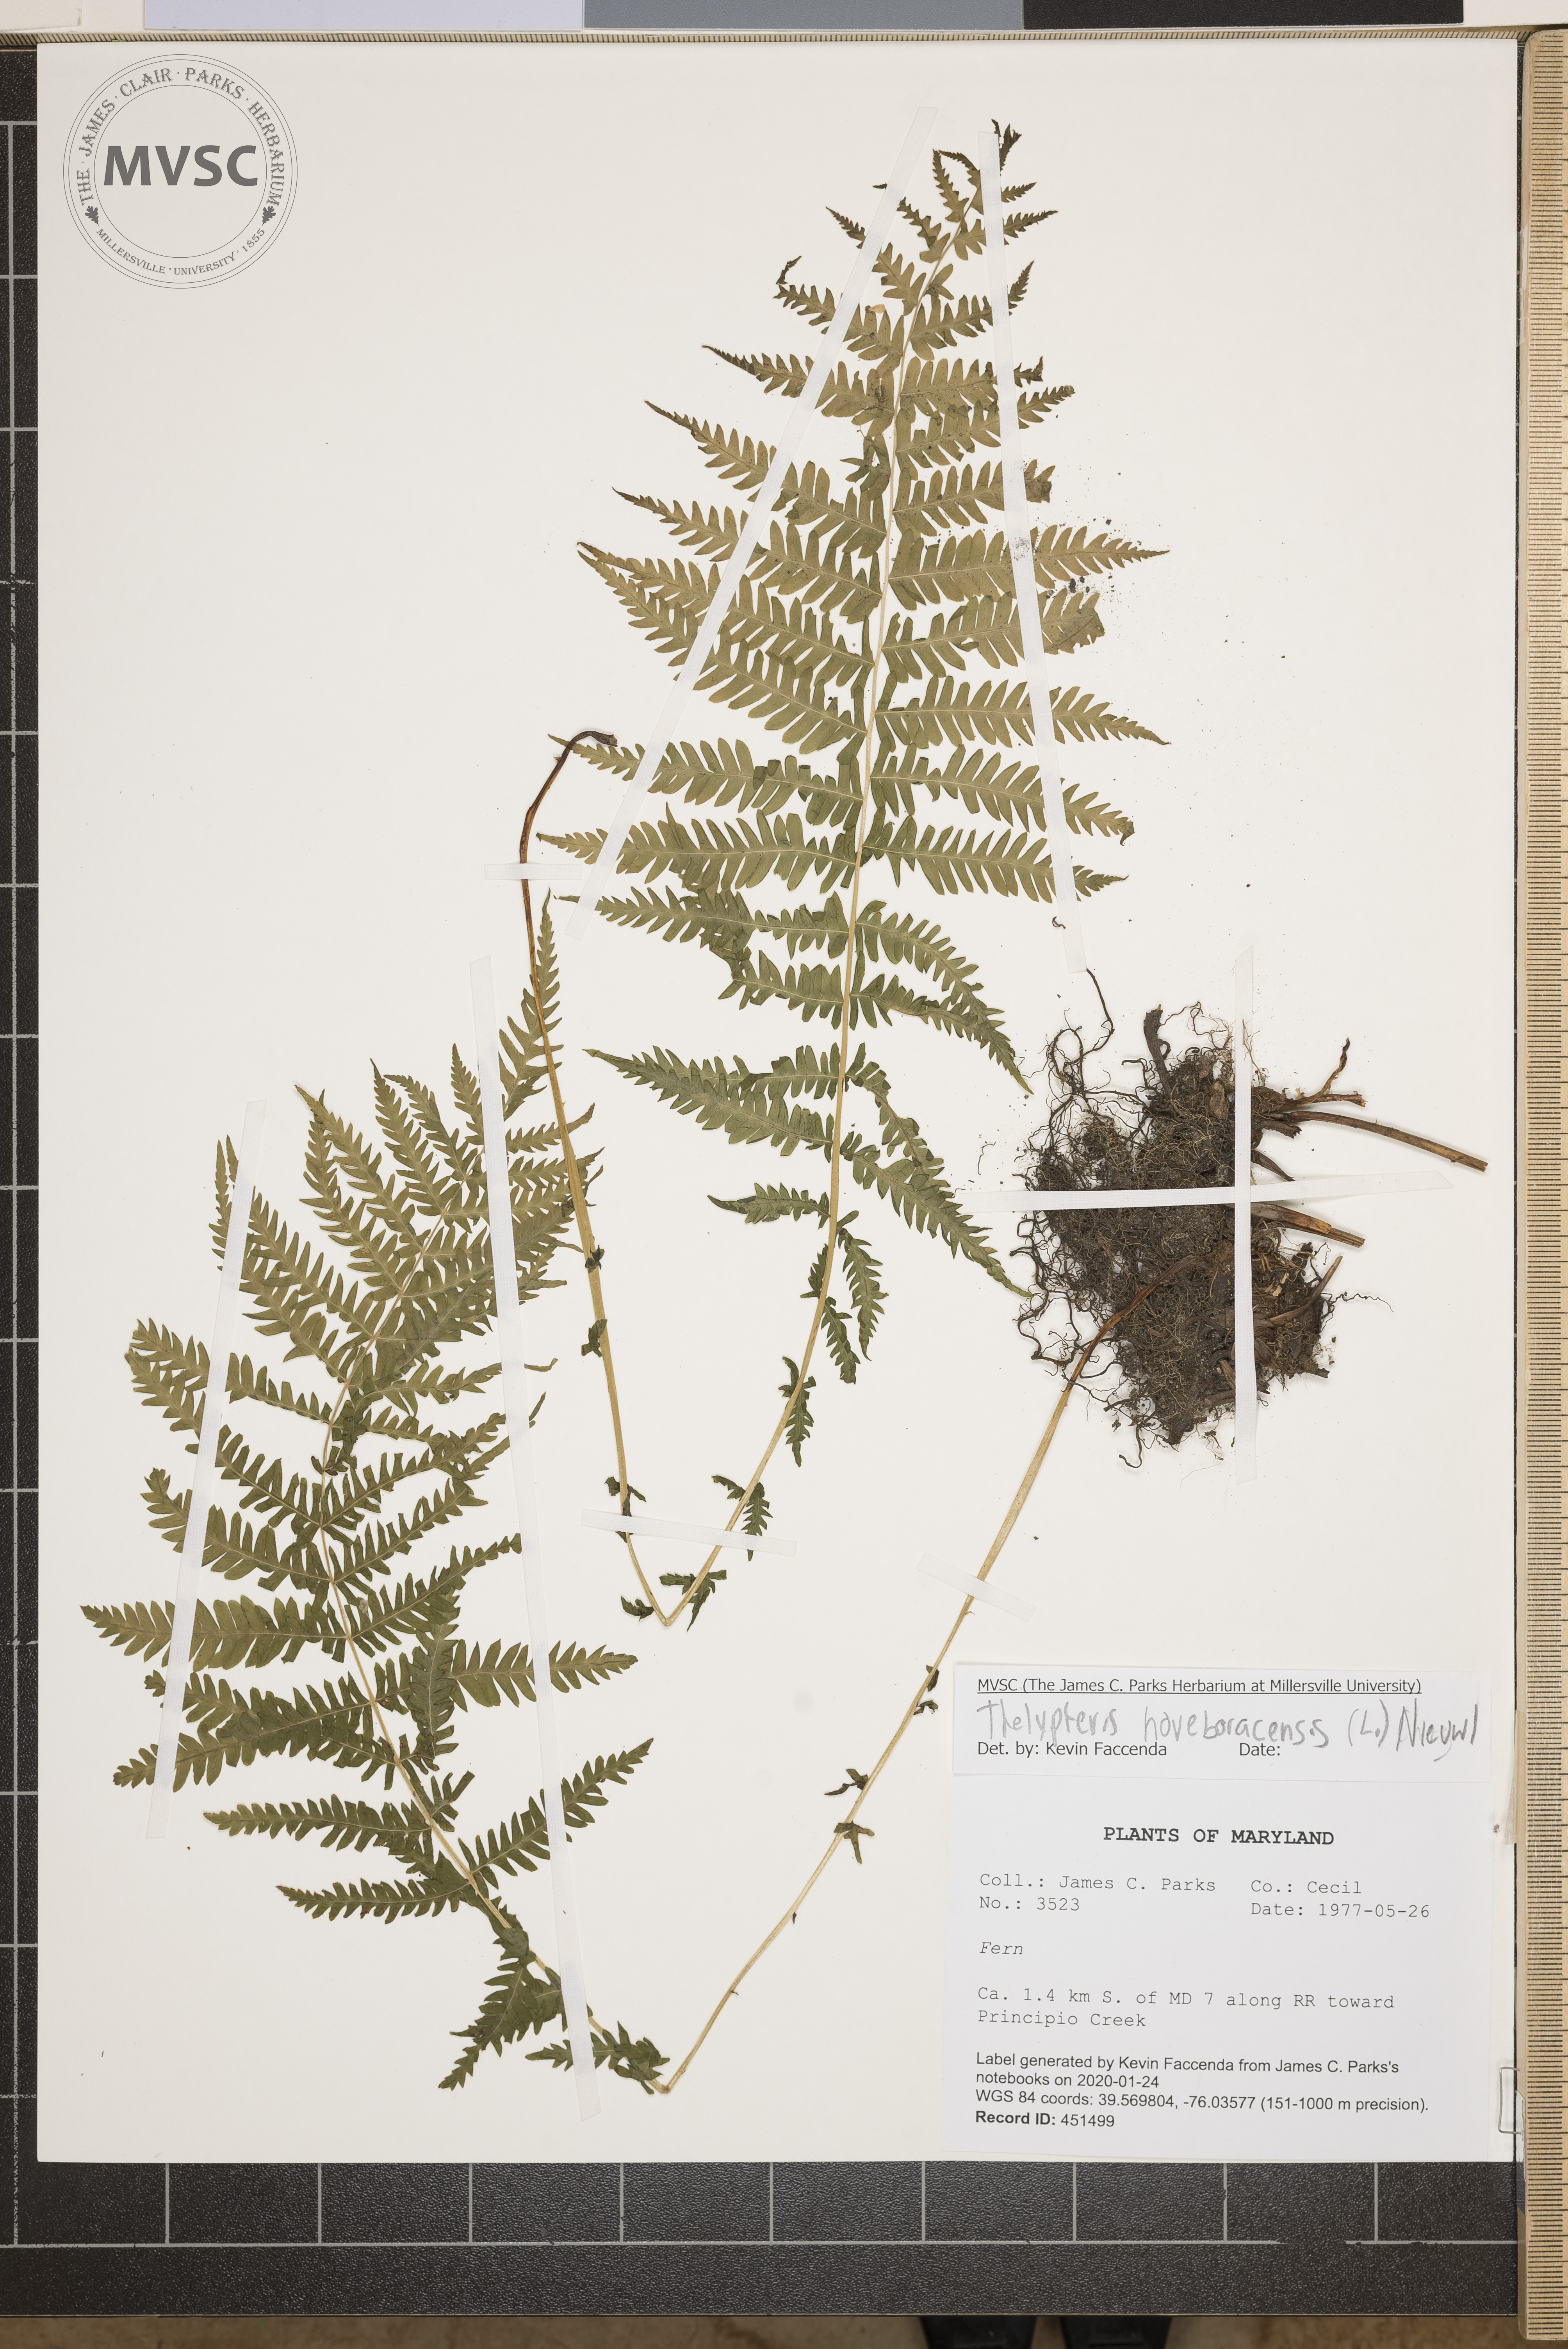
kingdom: Plantae
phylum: Tracheophyta
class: Polypodiopsida
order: Polypodiales
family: Thelypteridaceae
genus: Amauropelta
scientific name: Amauropelta noveboracensis
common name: New york fern
